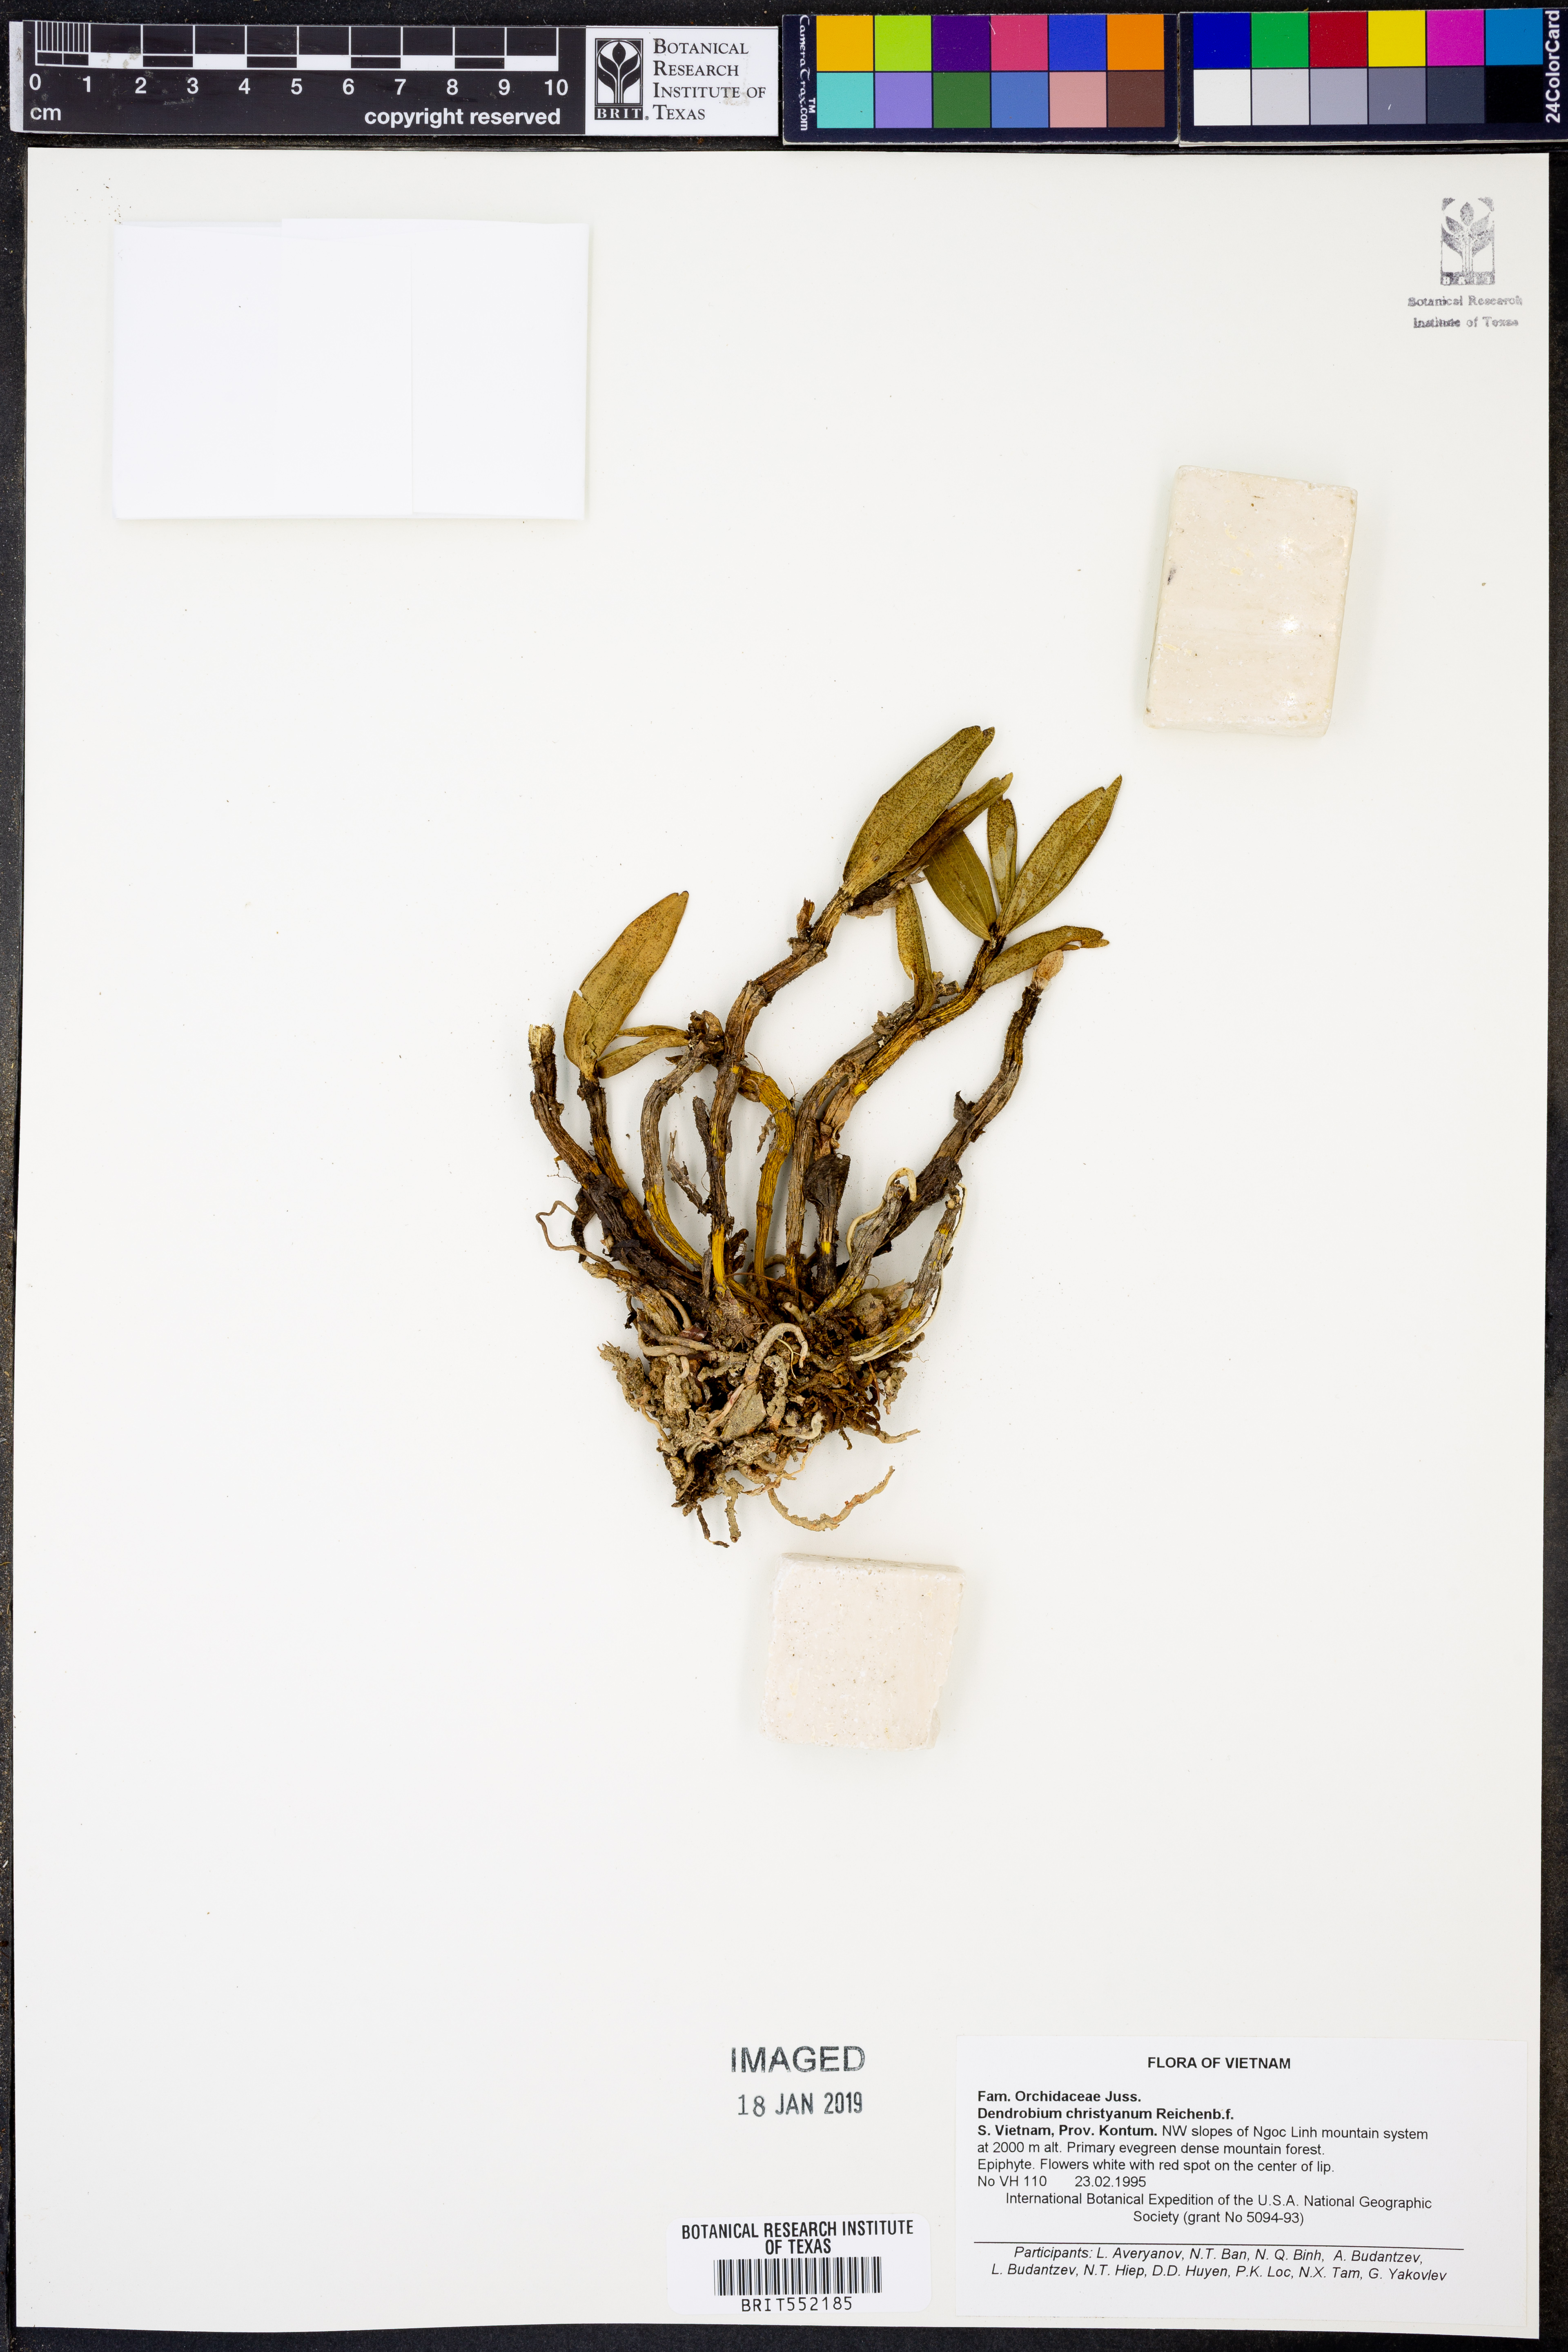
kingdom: Plantae
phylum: Tracheophyta
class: Liliopsida
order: Asparagales
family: Orchidaceae
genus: Dendrobium
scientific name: Dendrobium christyanum
